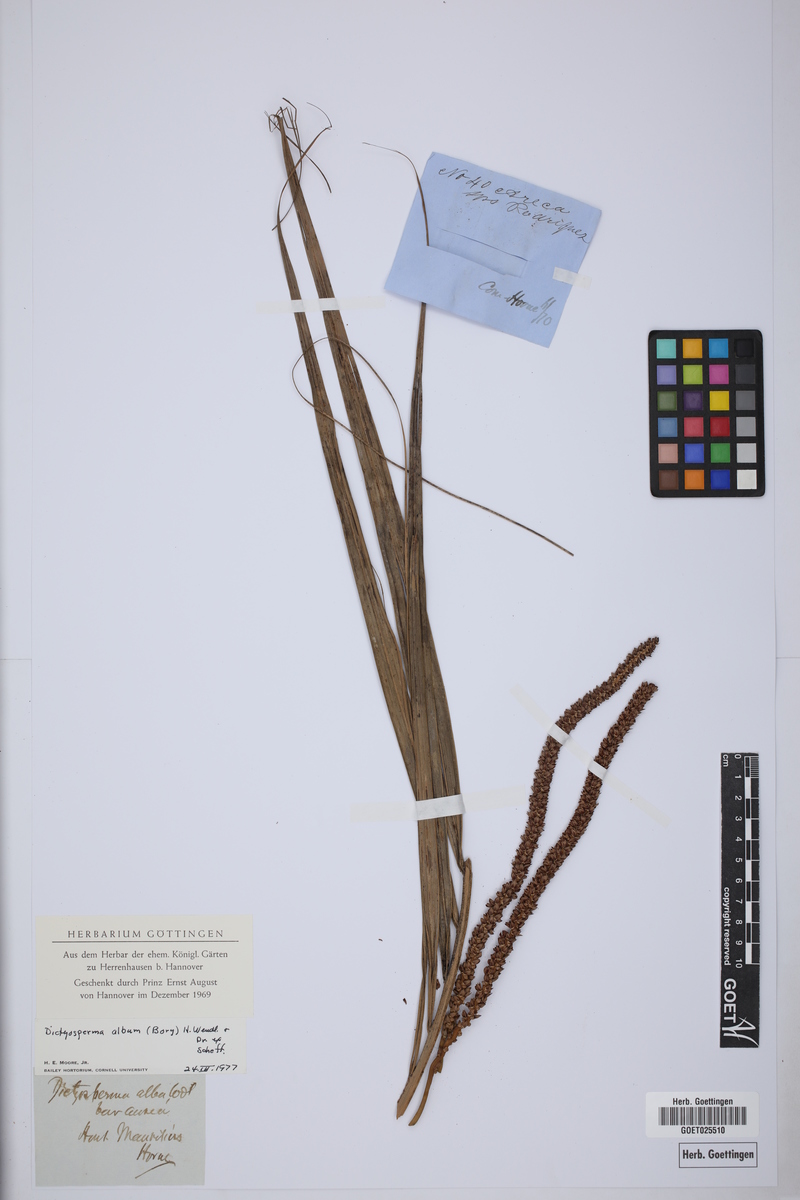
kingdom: Plantae
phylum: Tracheophyta
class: Liliopsida
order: Arecales
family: Arecaceae
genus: Dictyosperma
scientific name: Dictyosperma album
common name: Common princess palm
